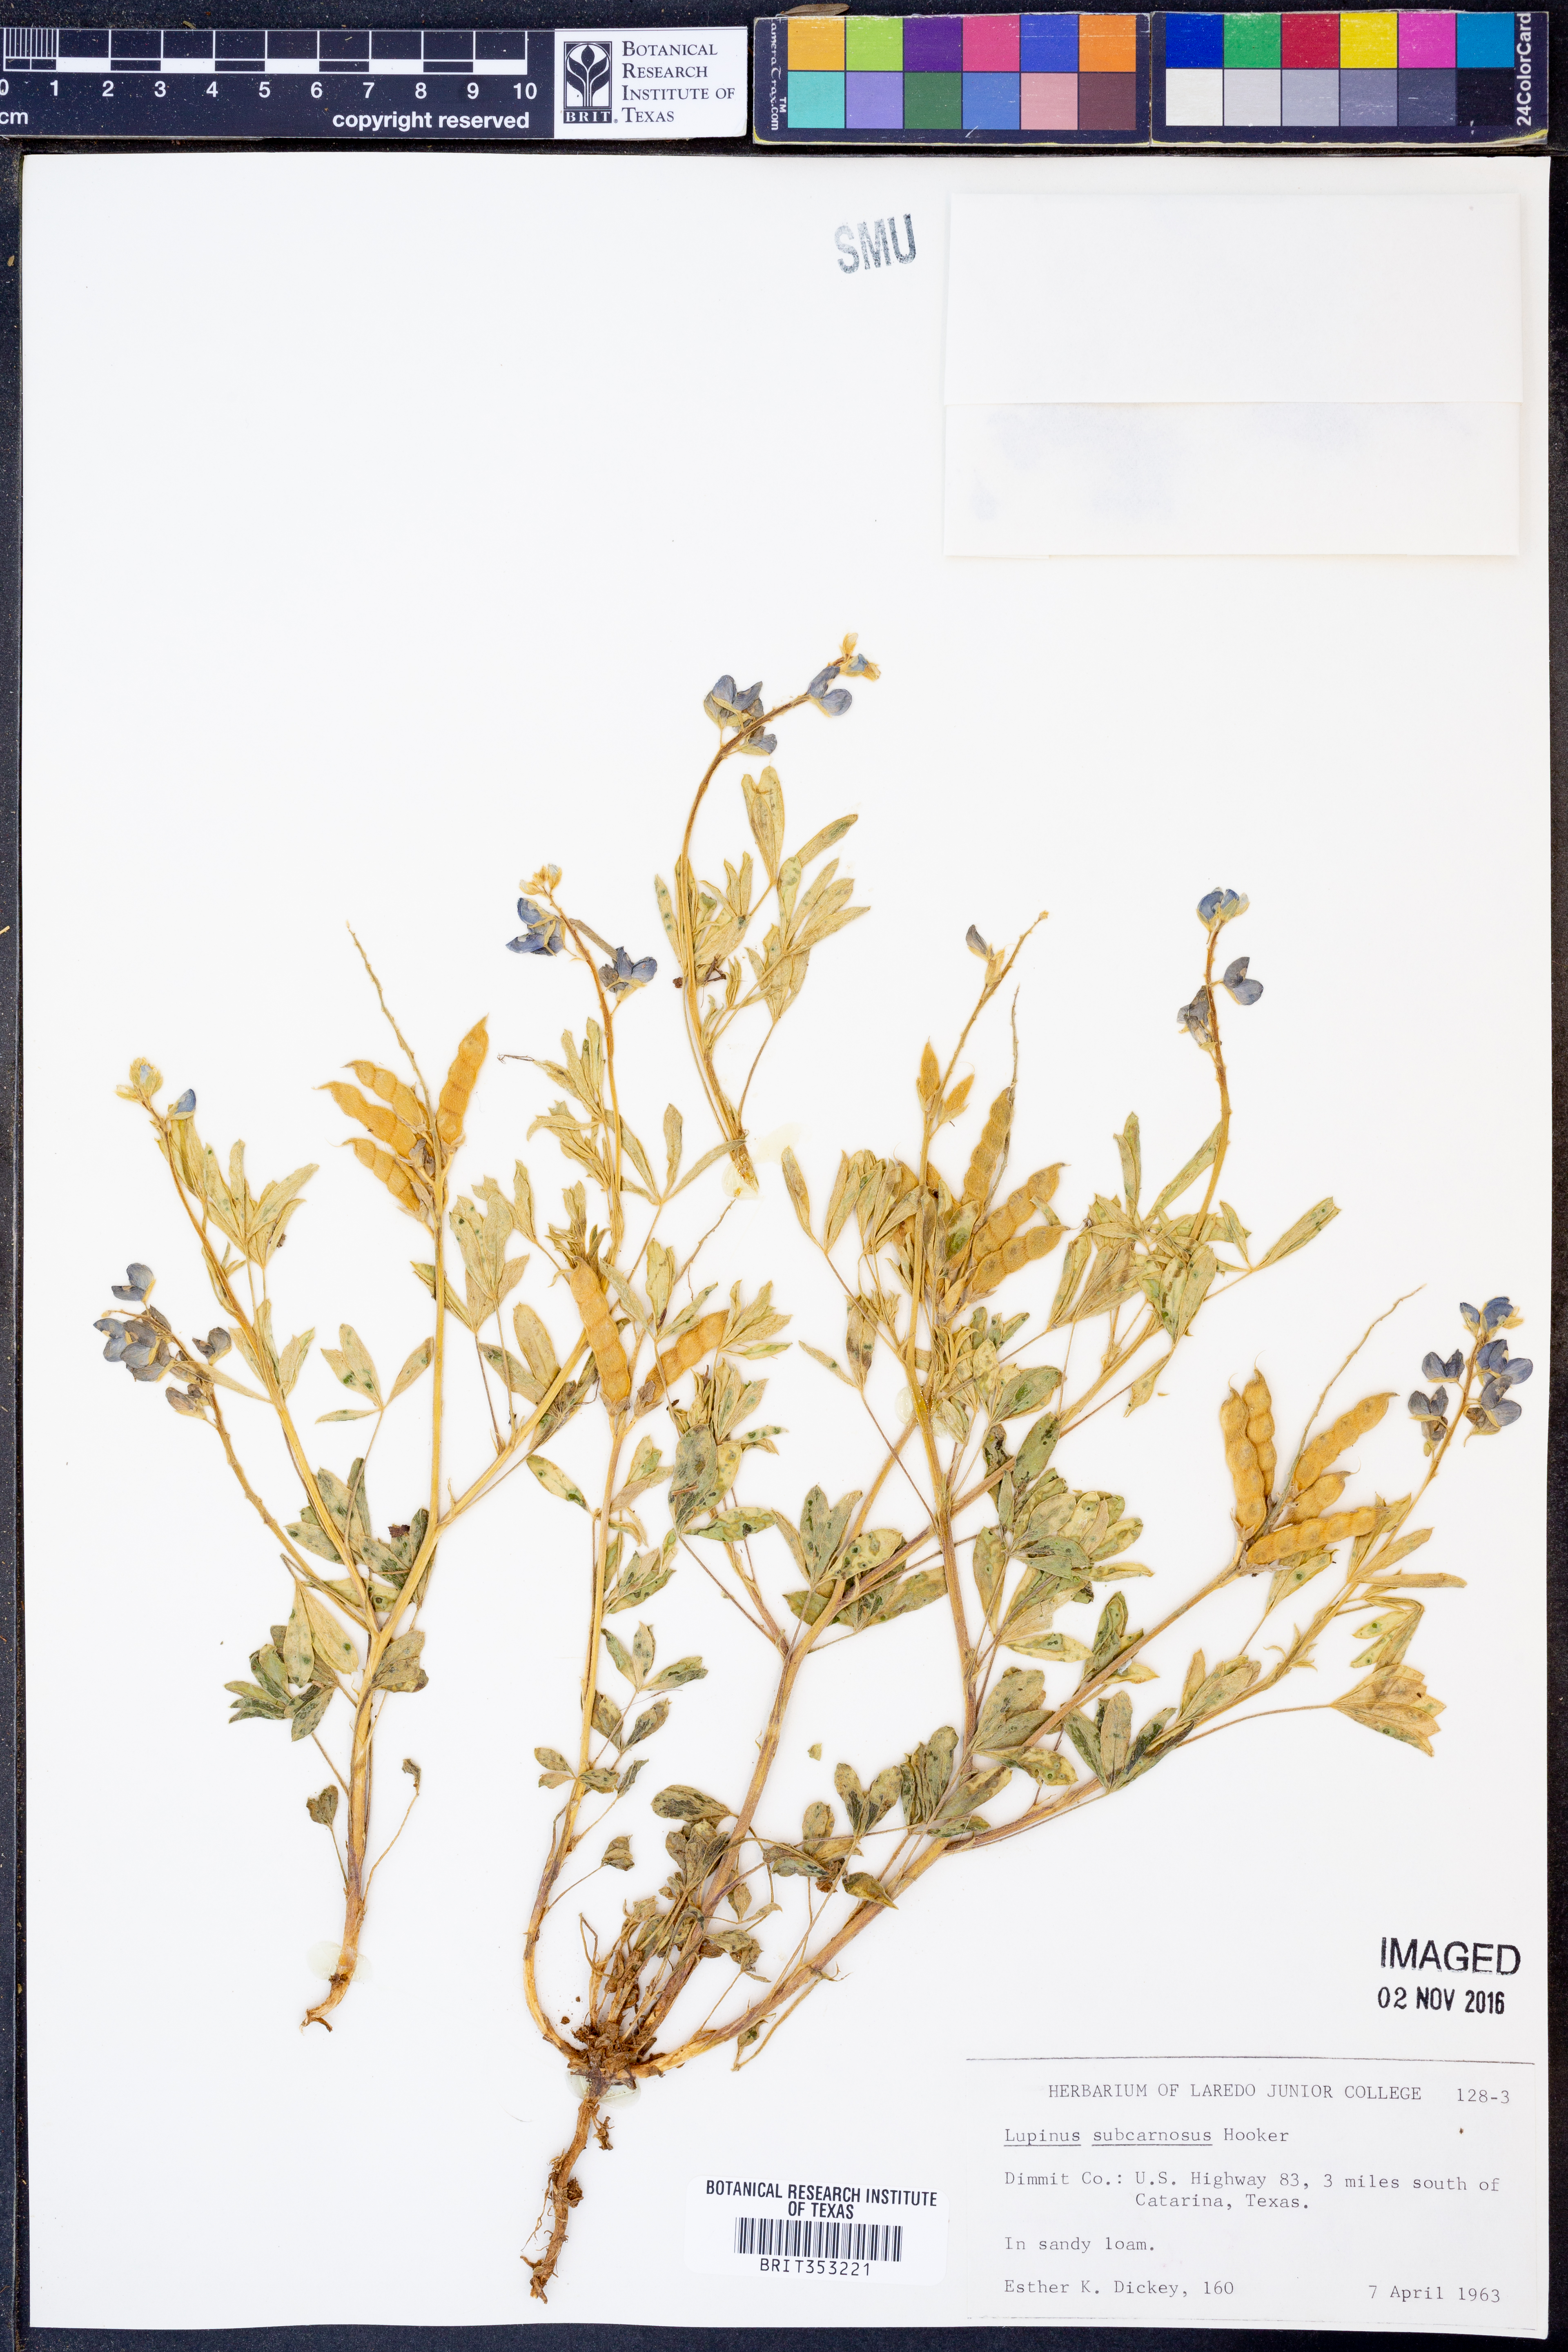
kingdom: Plantae
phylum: Tracheophyta
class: Magnoliopsida
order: Fabales
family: Fabaceae
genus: Lupinus
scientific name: Lupinus subcarnosus
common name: Texas bluebonnet
